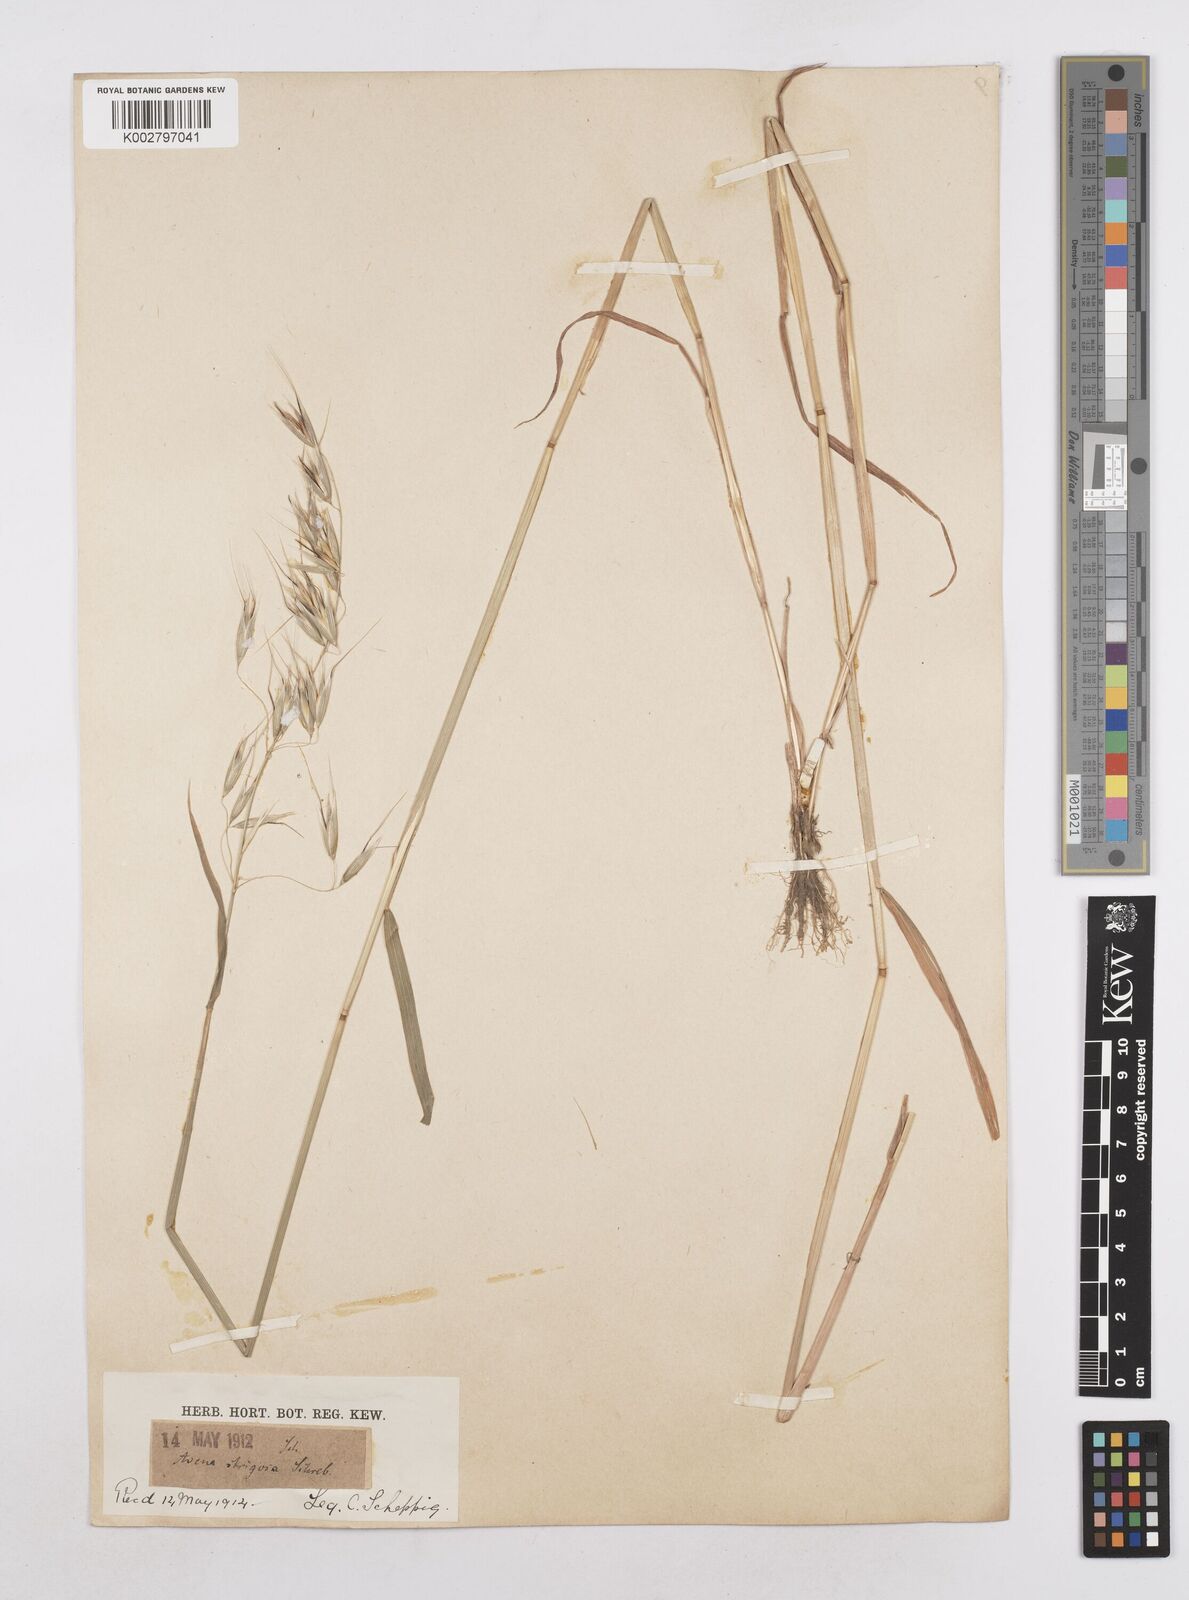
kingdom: Plantae
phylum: Tracheophyta
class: Liliopsida
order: Poales
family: Poaceae
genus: Avena
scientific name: Avena strigosa
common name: Bristle oat
